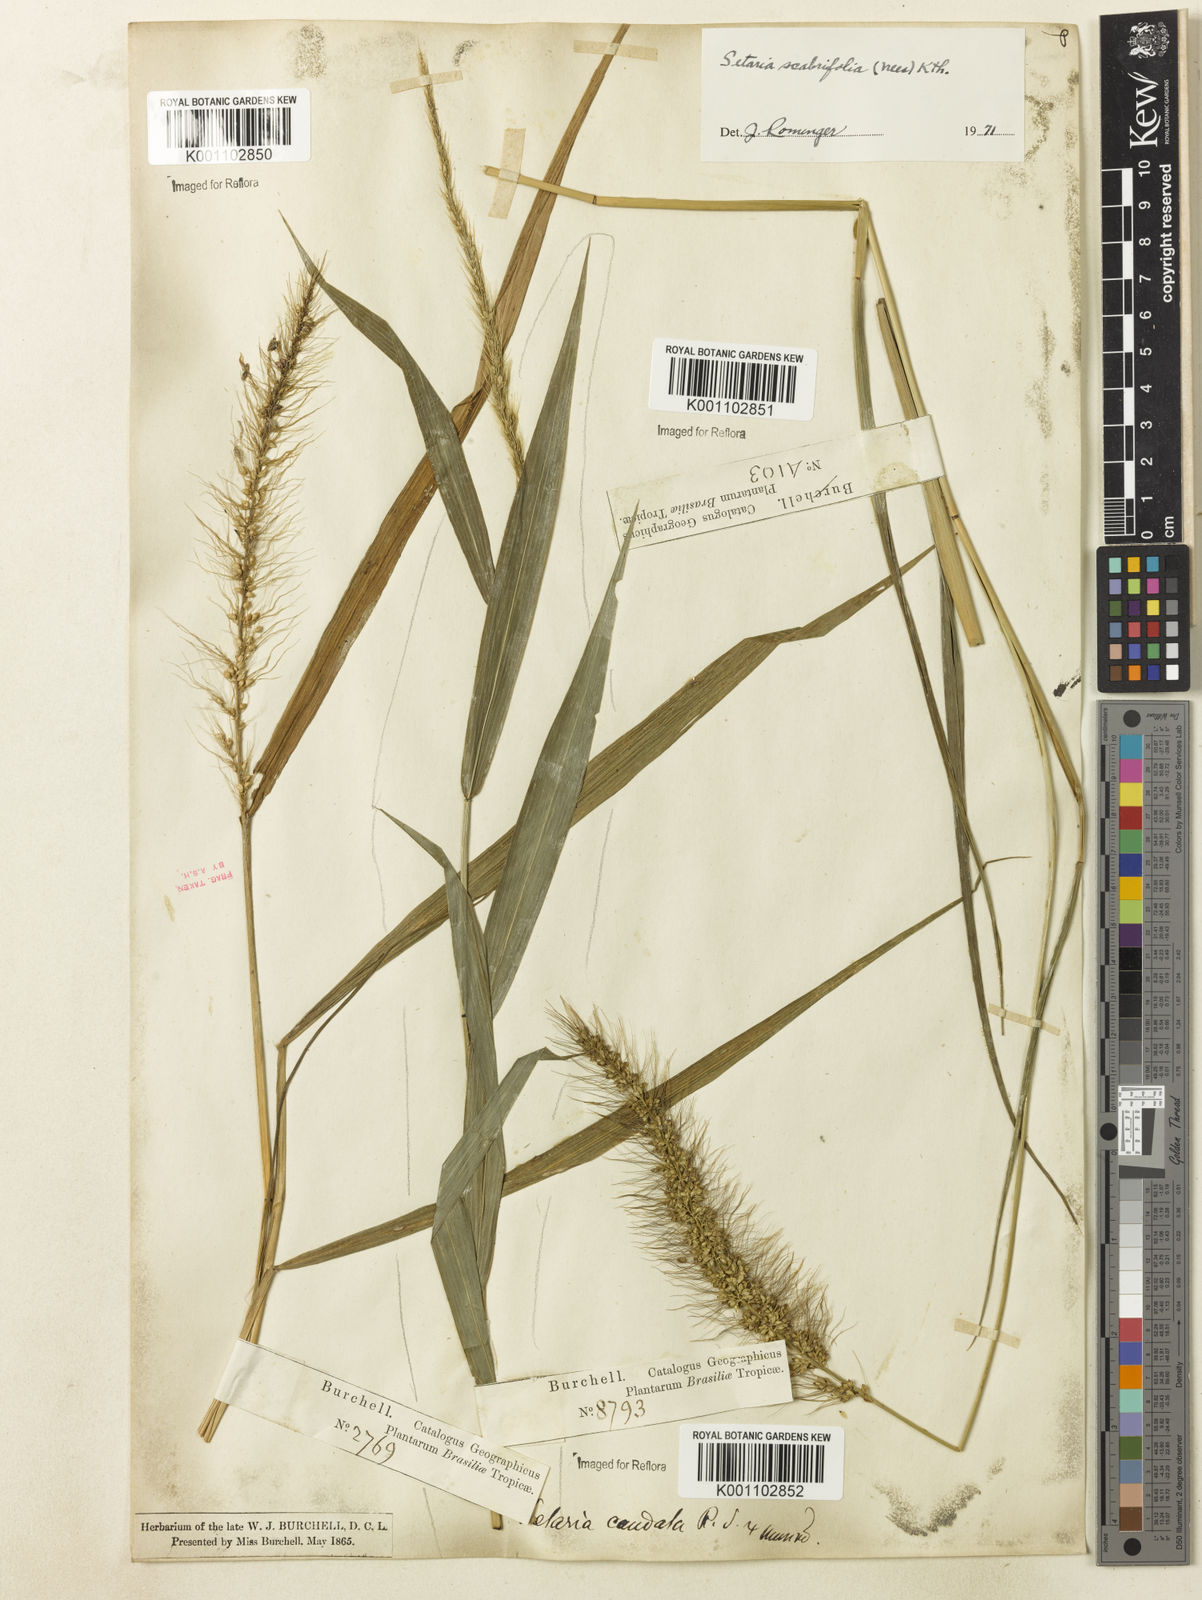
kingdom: Plantae
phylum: Tracheophyta
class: Liliopsida
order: Poales
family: Poaceae
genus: Setaria
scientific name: Setaria scabrifolia
